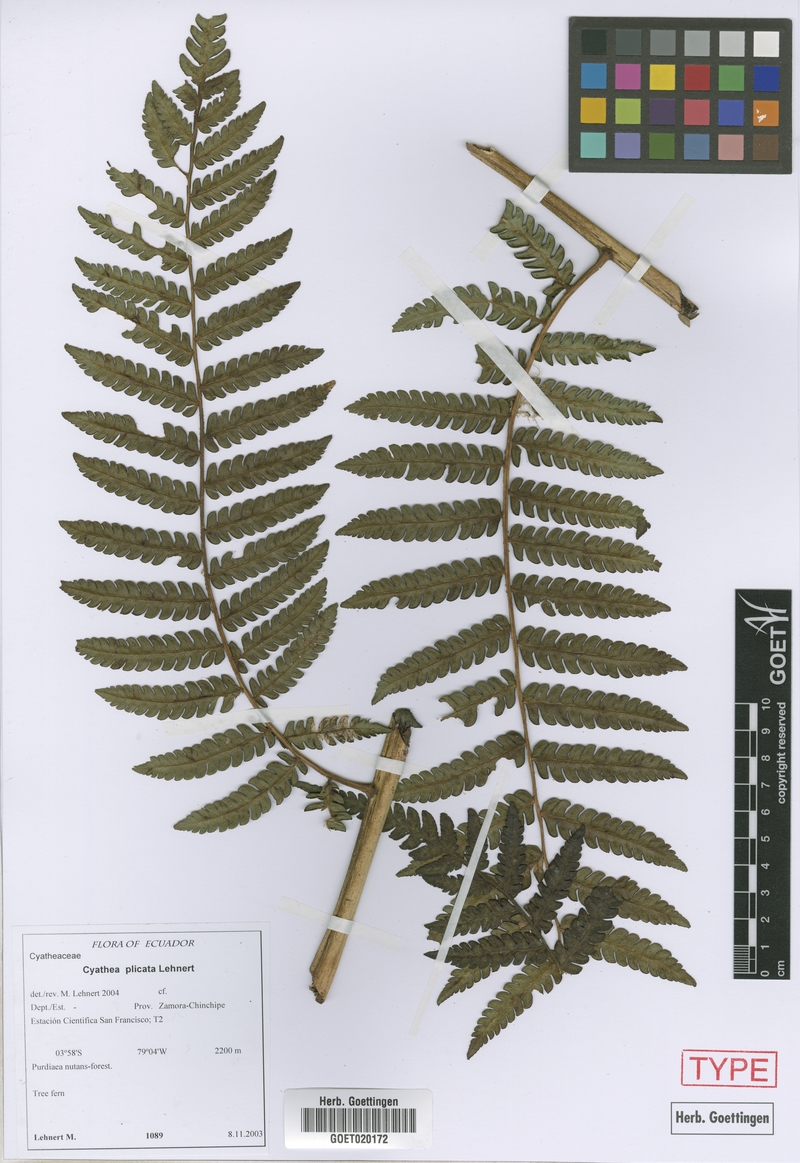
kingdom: Plantae
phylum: Tracheophyta
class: Polypodiopsida
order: Cyatheales
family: Cyatheaceae
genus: Cyathea
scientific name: Cyathea plicata
